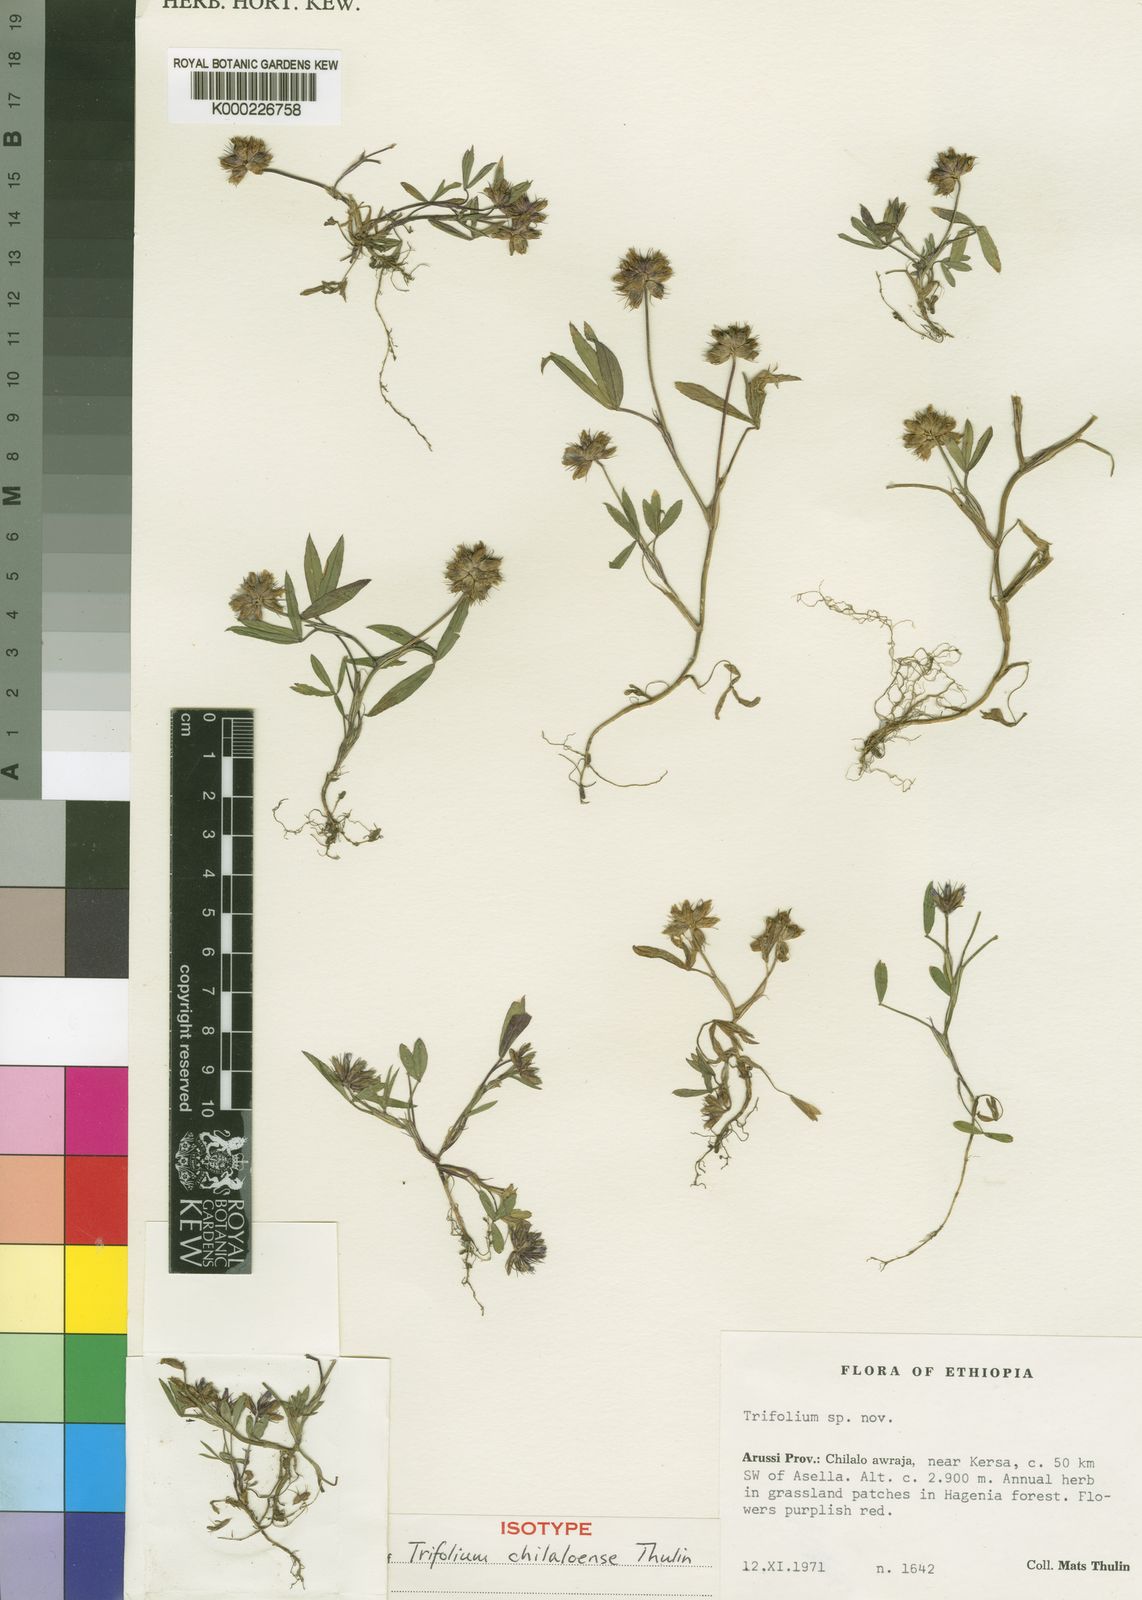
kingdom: Plantae
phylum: Tracheophyta
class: Magnoliopsida
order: Fabales
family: Fabaceae
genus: Trifolium
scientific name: Trifolium chilaloense
